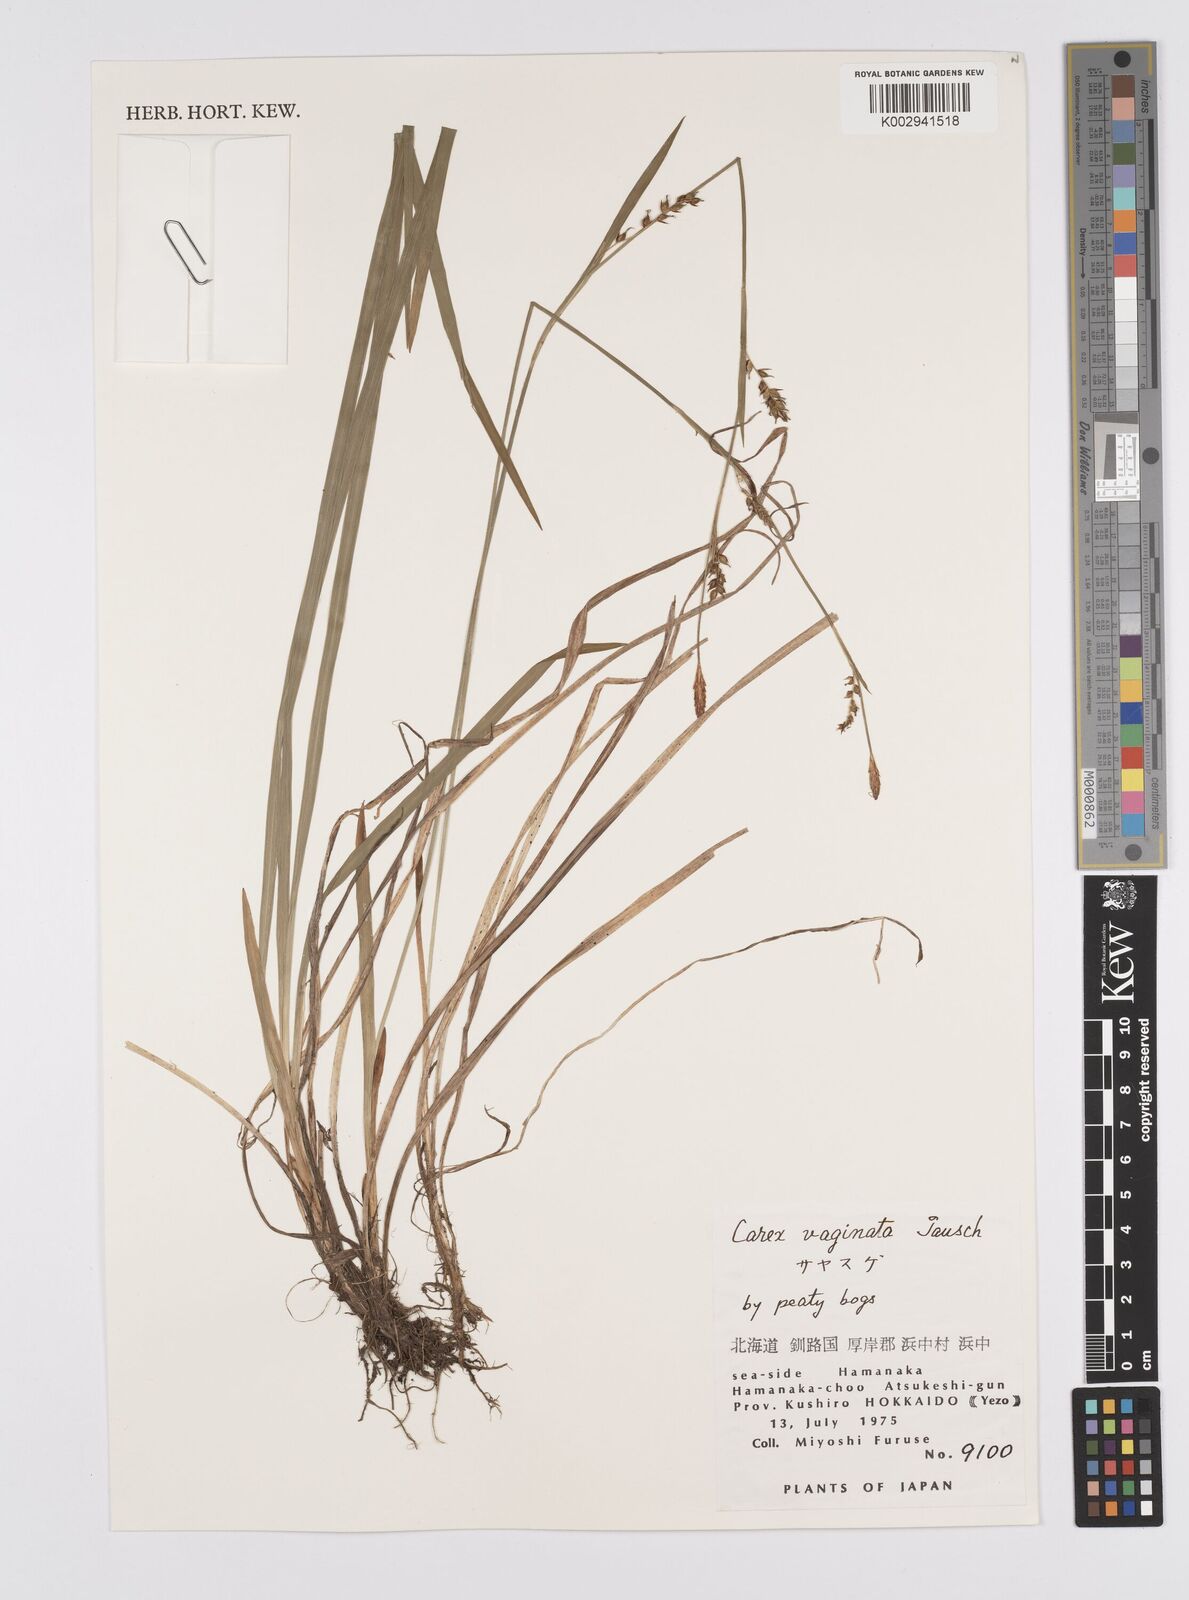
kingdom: Plantae
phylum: Tracheophyta
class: Liliopsida
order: Poales
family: Cyperaceae
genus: Carex
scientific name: Carex vaginata
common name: Sheathed sedge
